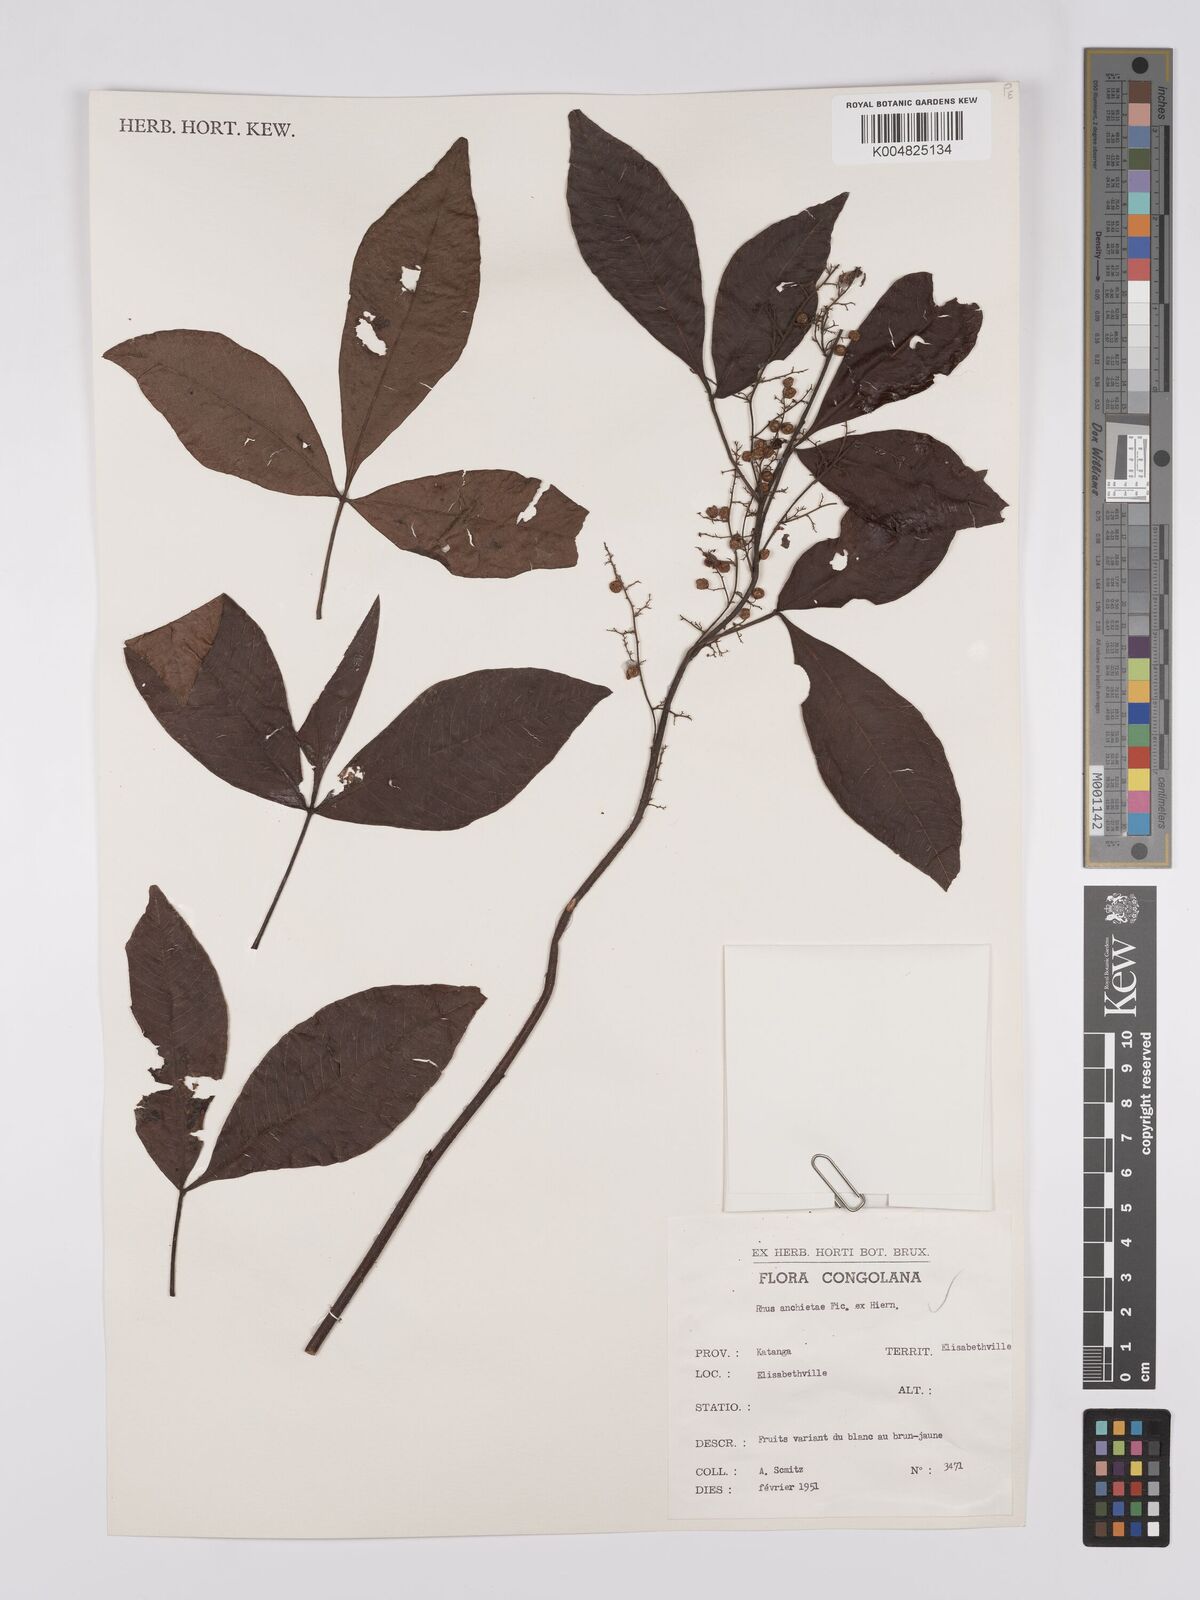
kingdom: Plantae
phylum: Tracheophyta
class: Magnoliopsida
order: Sapindales
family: Anacardiaceae
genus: Searsia
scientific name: Searsia anchietae
